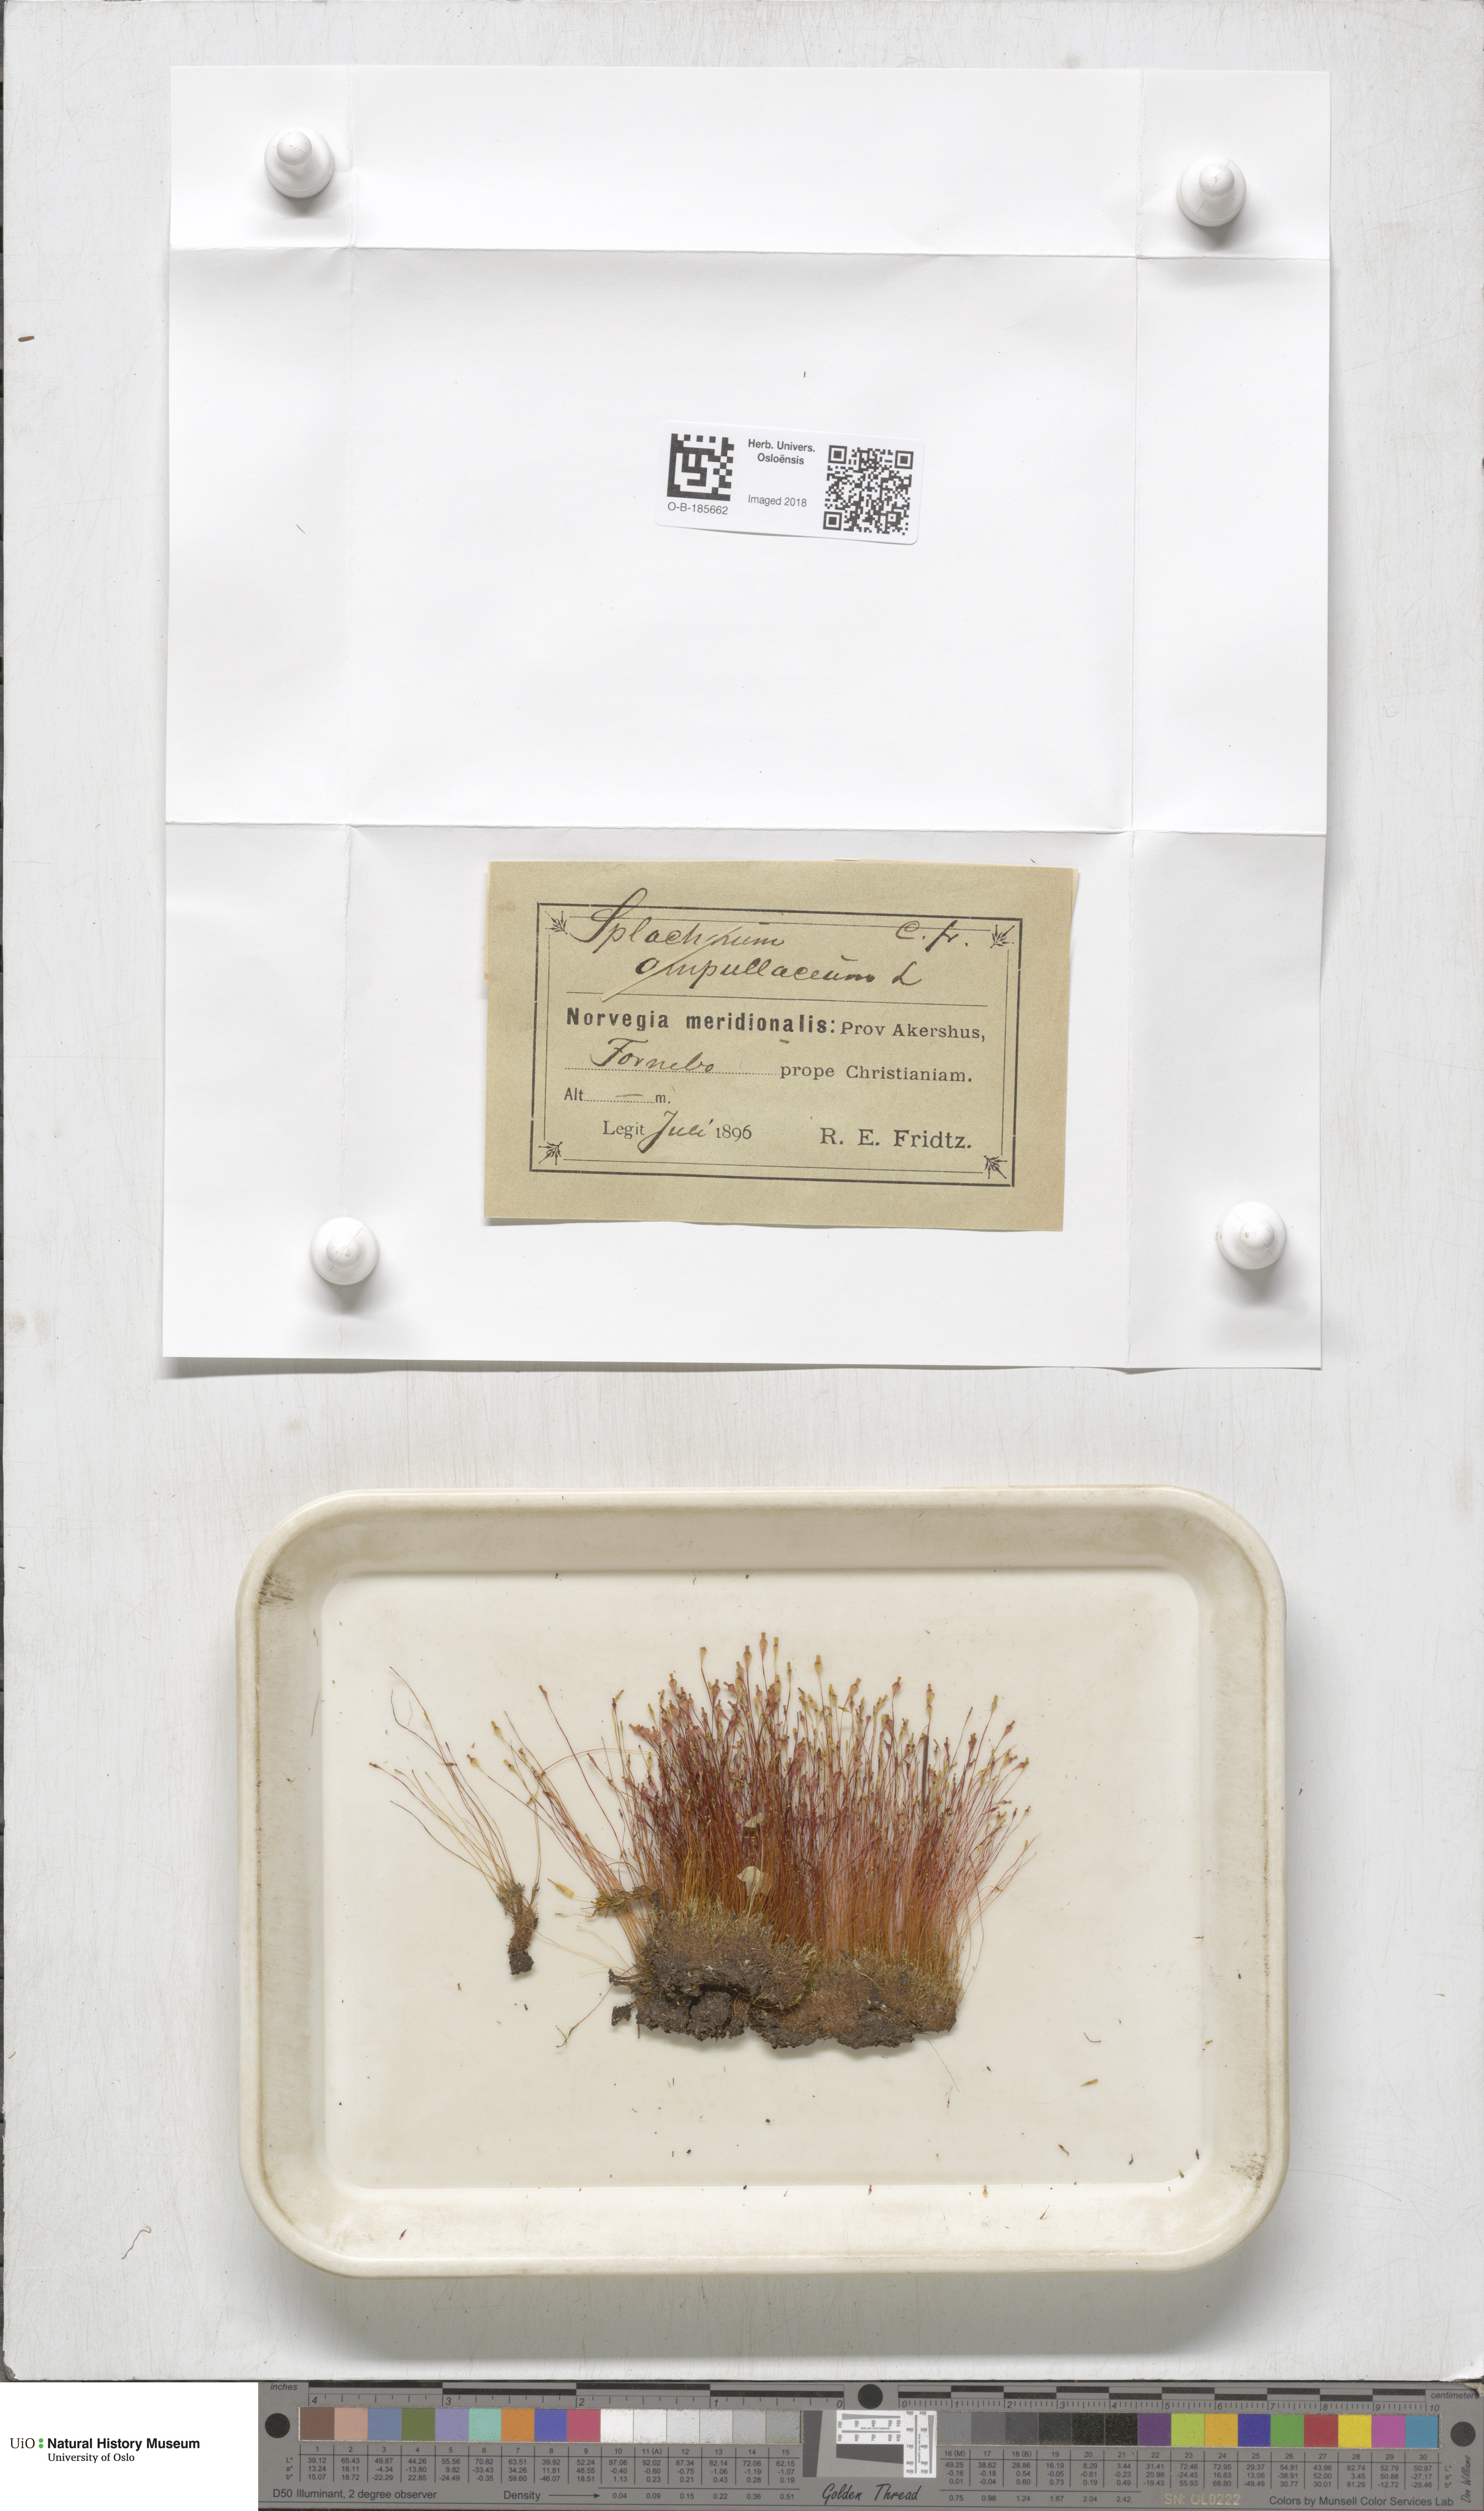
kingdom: Plantae
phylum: Bryophyta
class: Bryopsida
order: Splachnales
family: Splachnaceae
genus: Splachnum
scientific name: Splachnum ampullaceum
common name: Cruet dung moss
